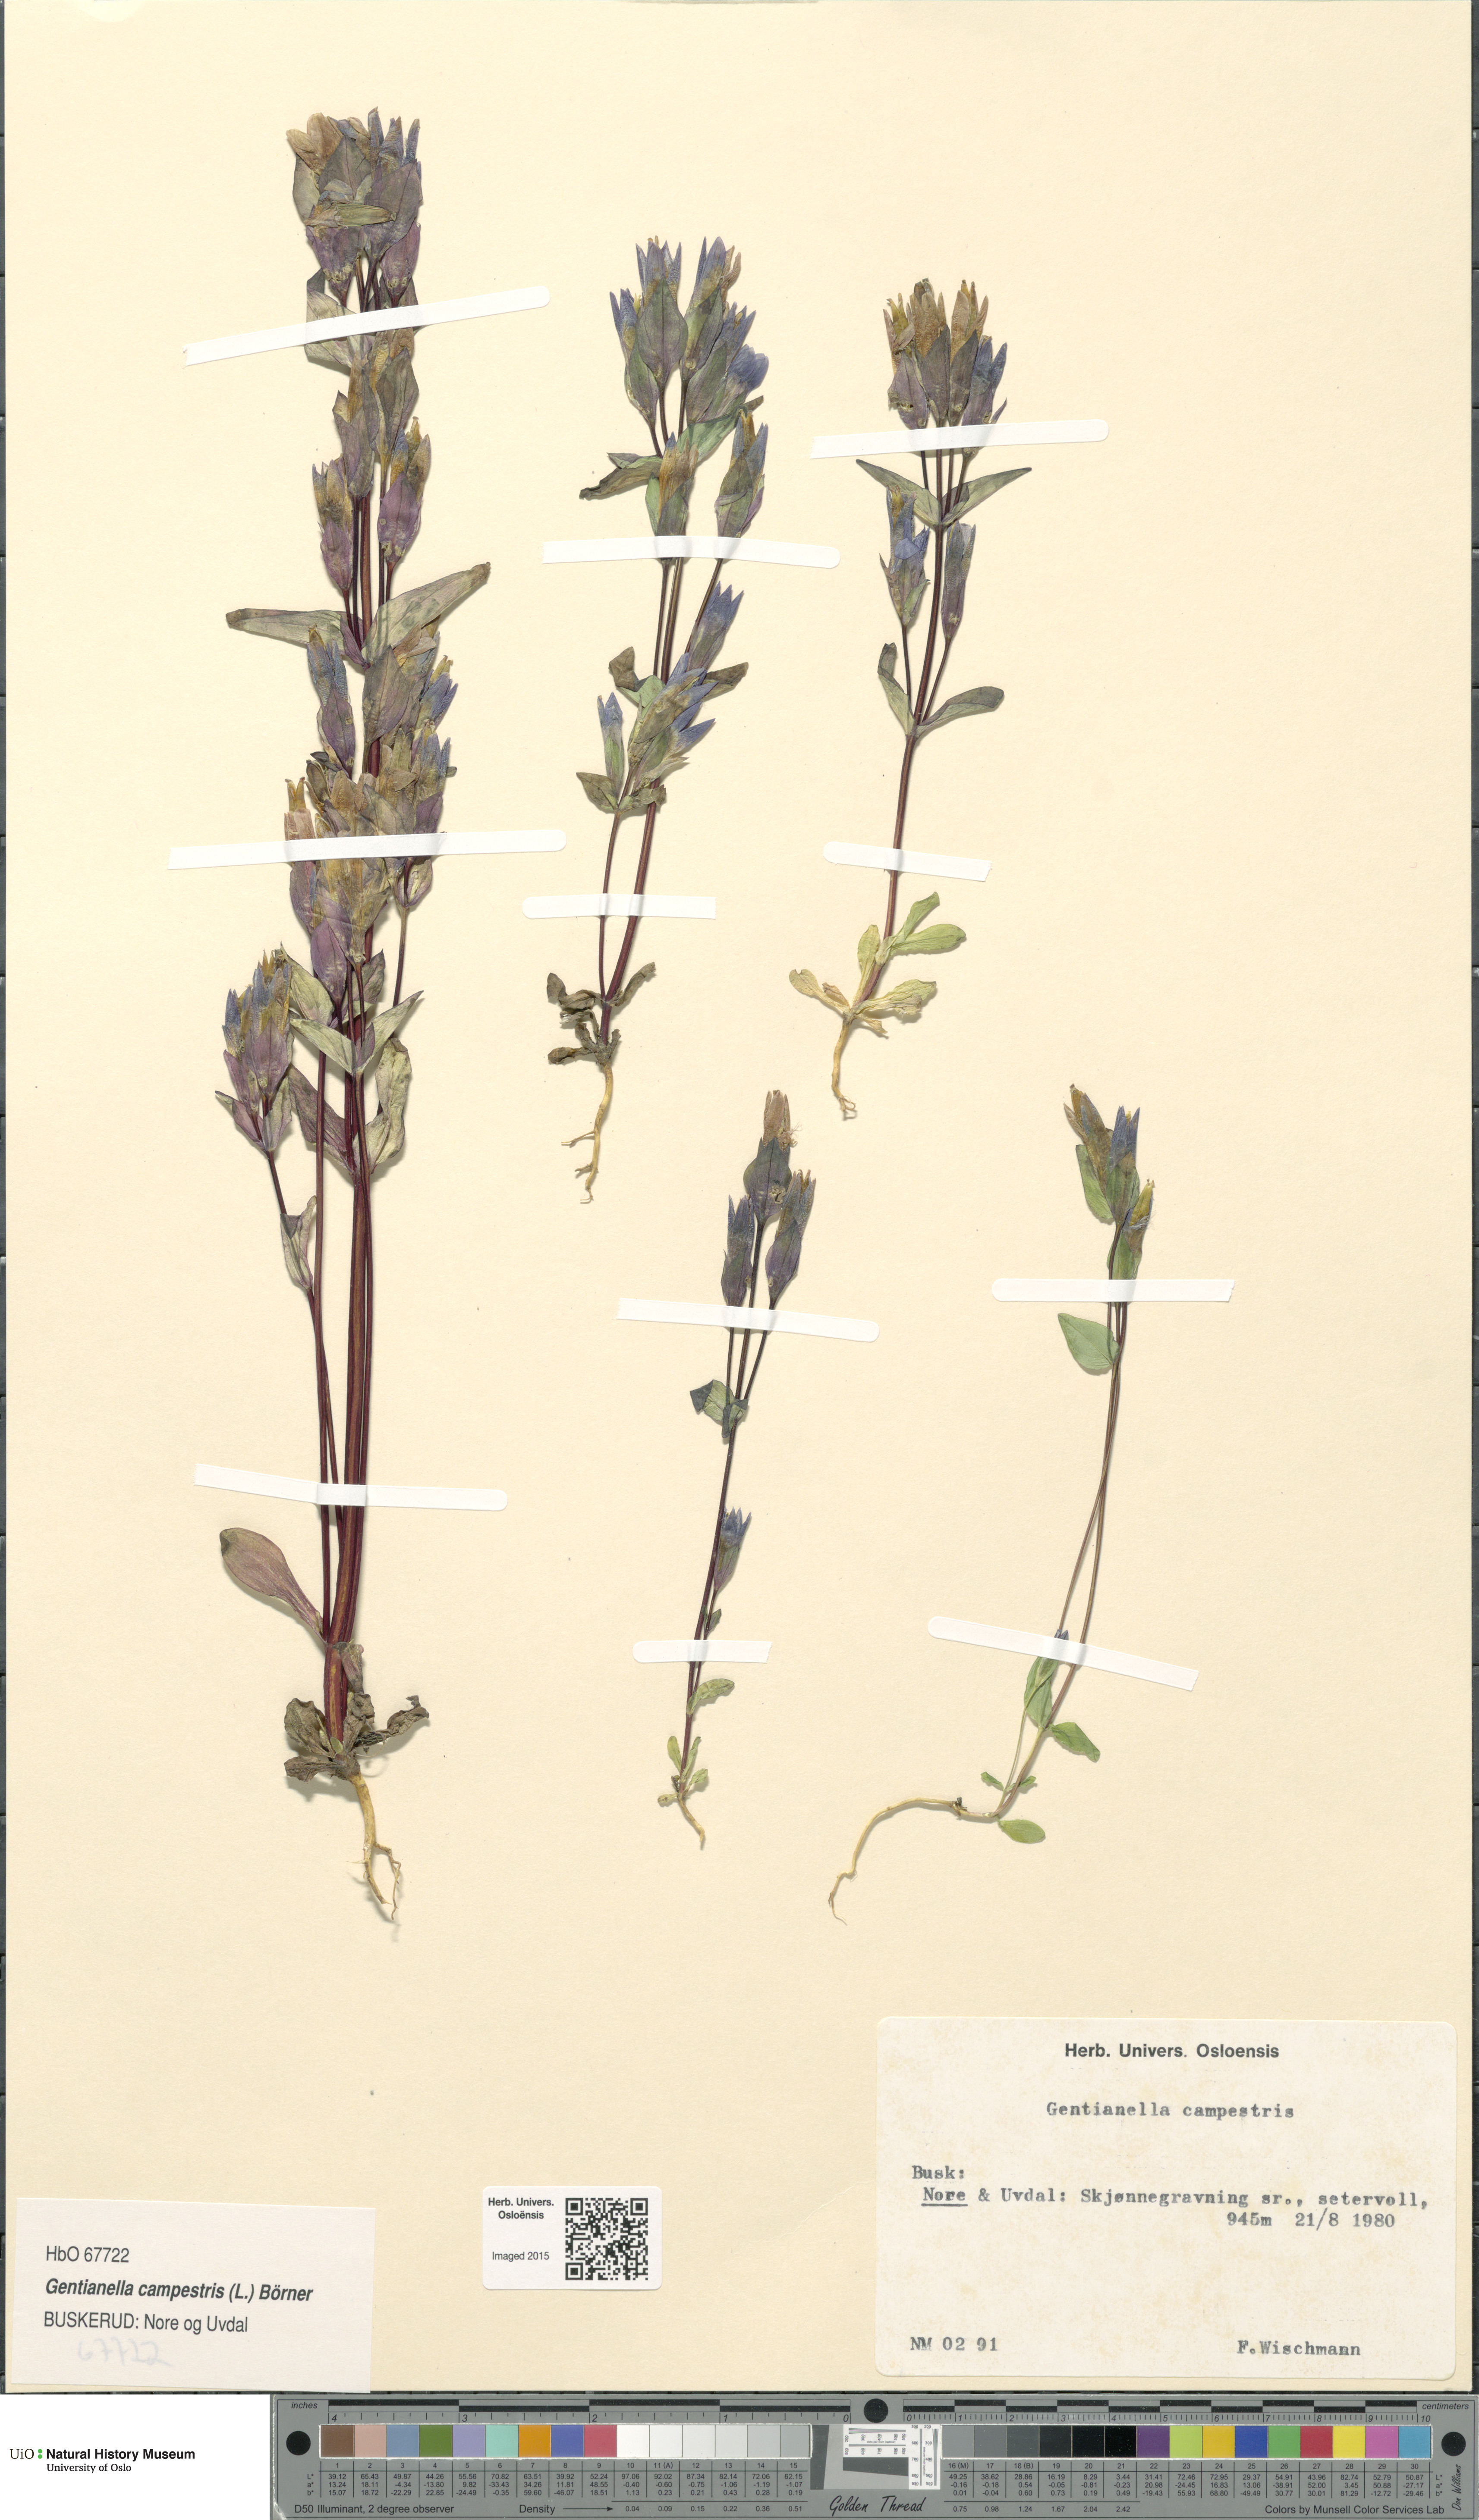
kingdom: Plantae
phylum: Tracheophyta
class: Magnoliopsida
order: Gentianales
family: Gentianaceae
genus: Gentianella
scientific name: Gentianella campestris
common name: Field gentian
